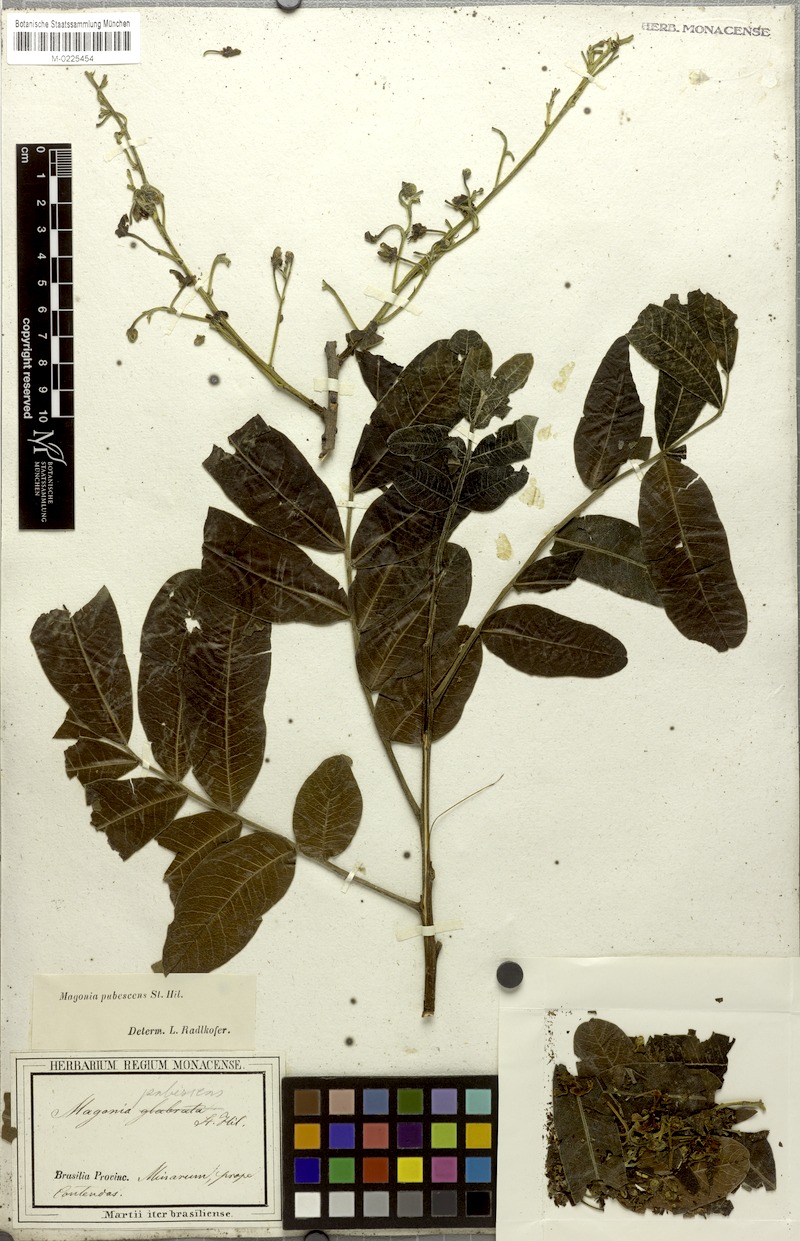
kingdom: Plantae
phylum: Tracheophyta
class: Magnoliopsida
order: Sapindales
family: Sapindaceae
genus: Magonia
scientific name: Magonia pubescens
